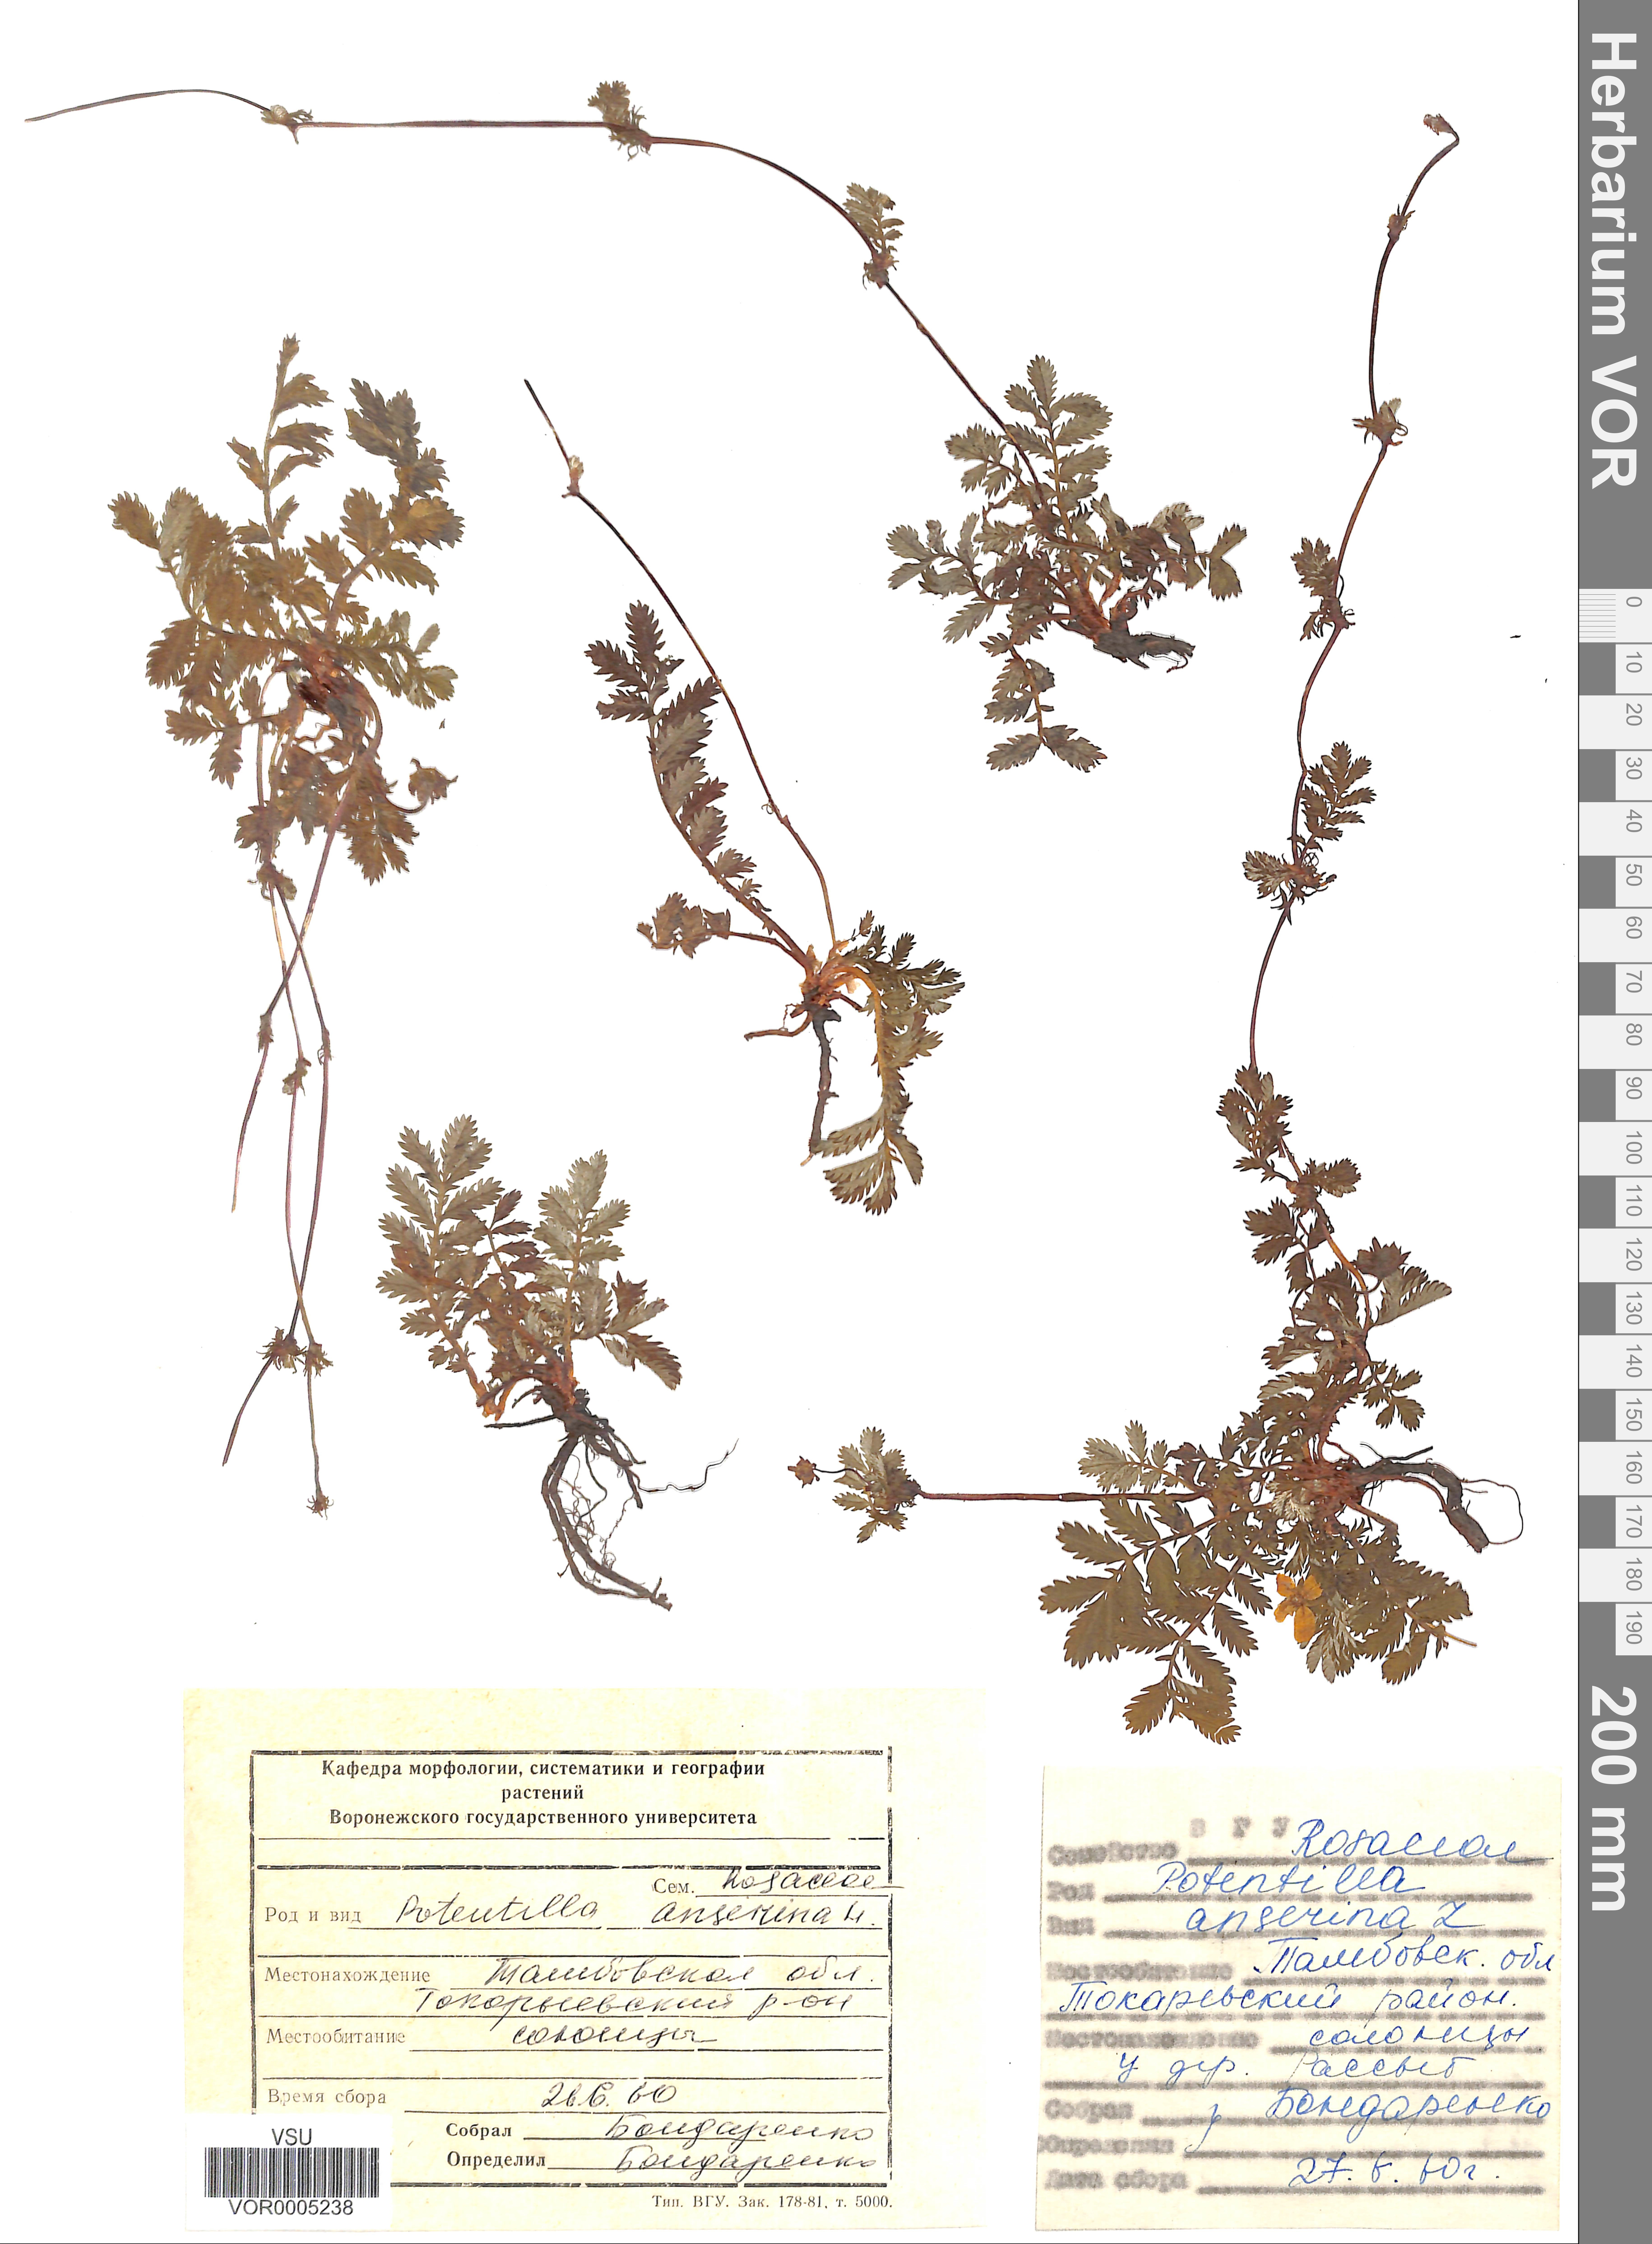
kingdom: Plantae
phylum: Tracheophyta
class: Magnoliopsida
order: Rosales
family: Rosaceae
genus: Argentina
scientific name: Argentina anserina
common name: Common silverweed
